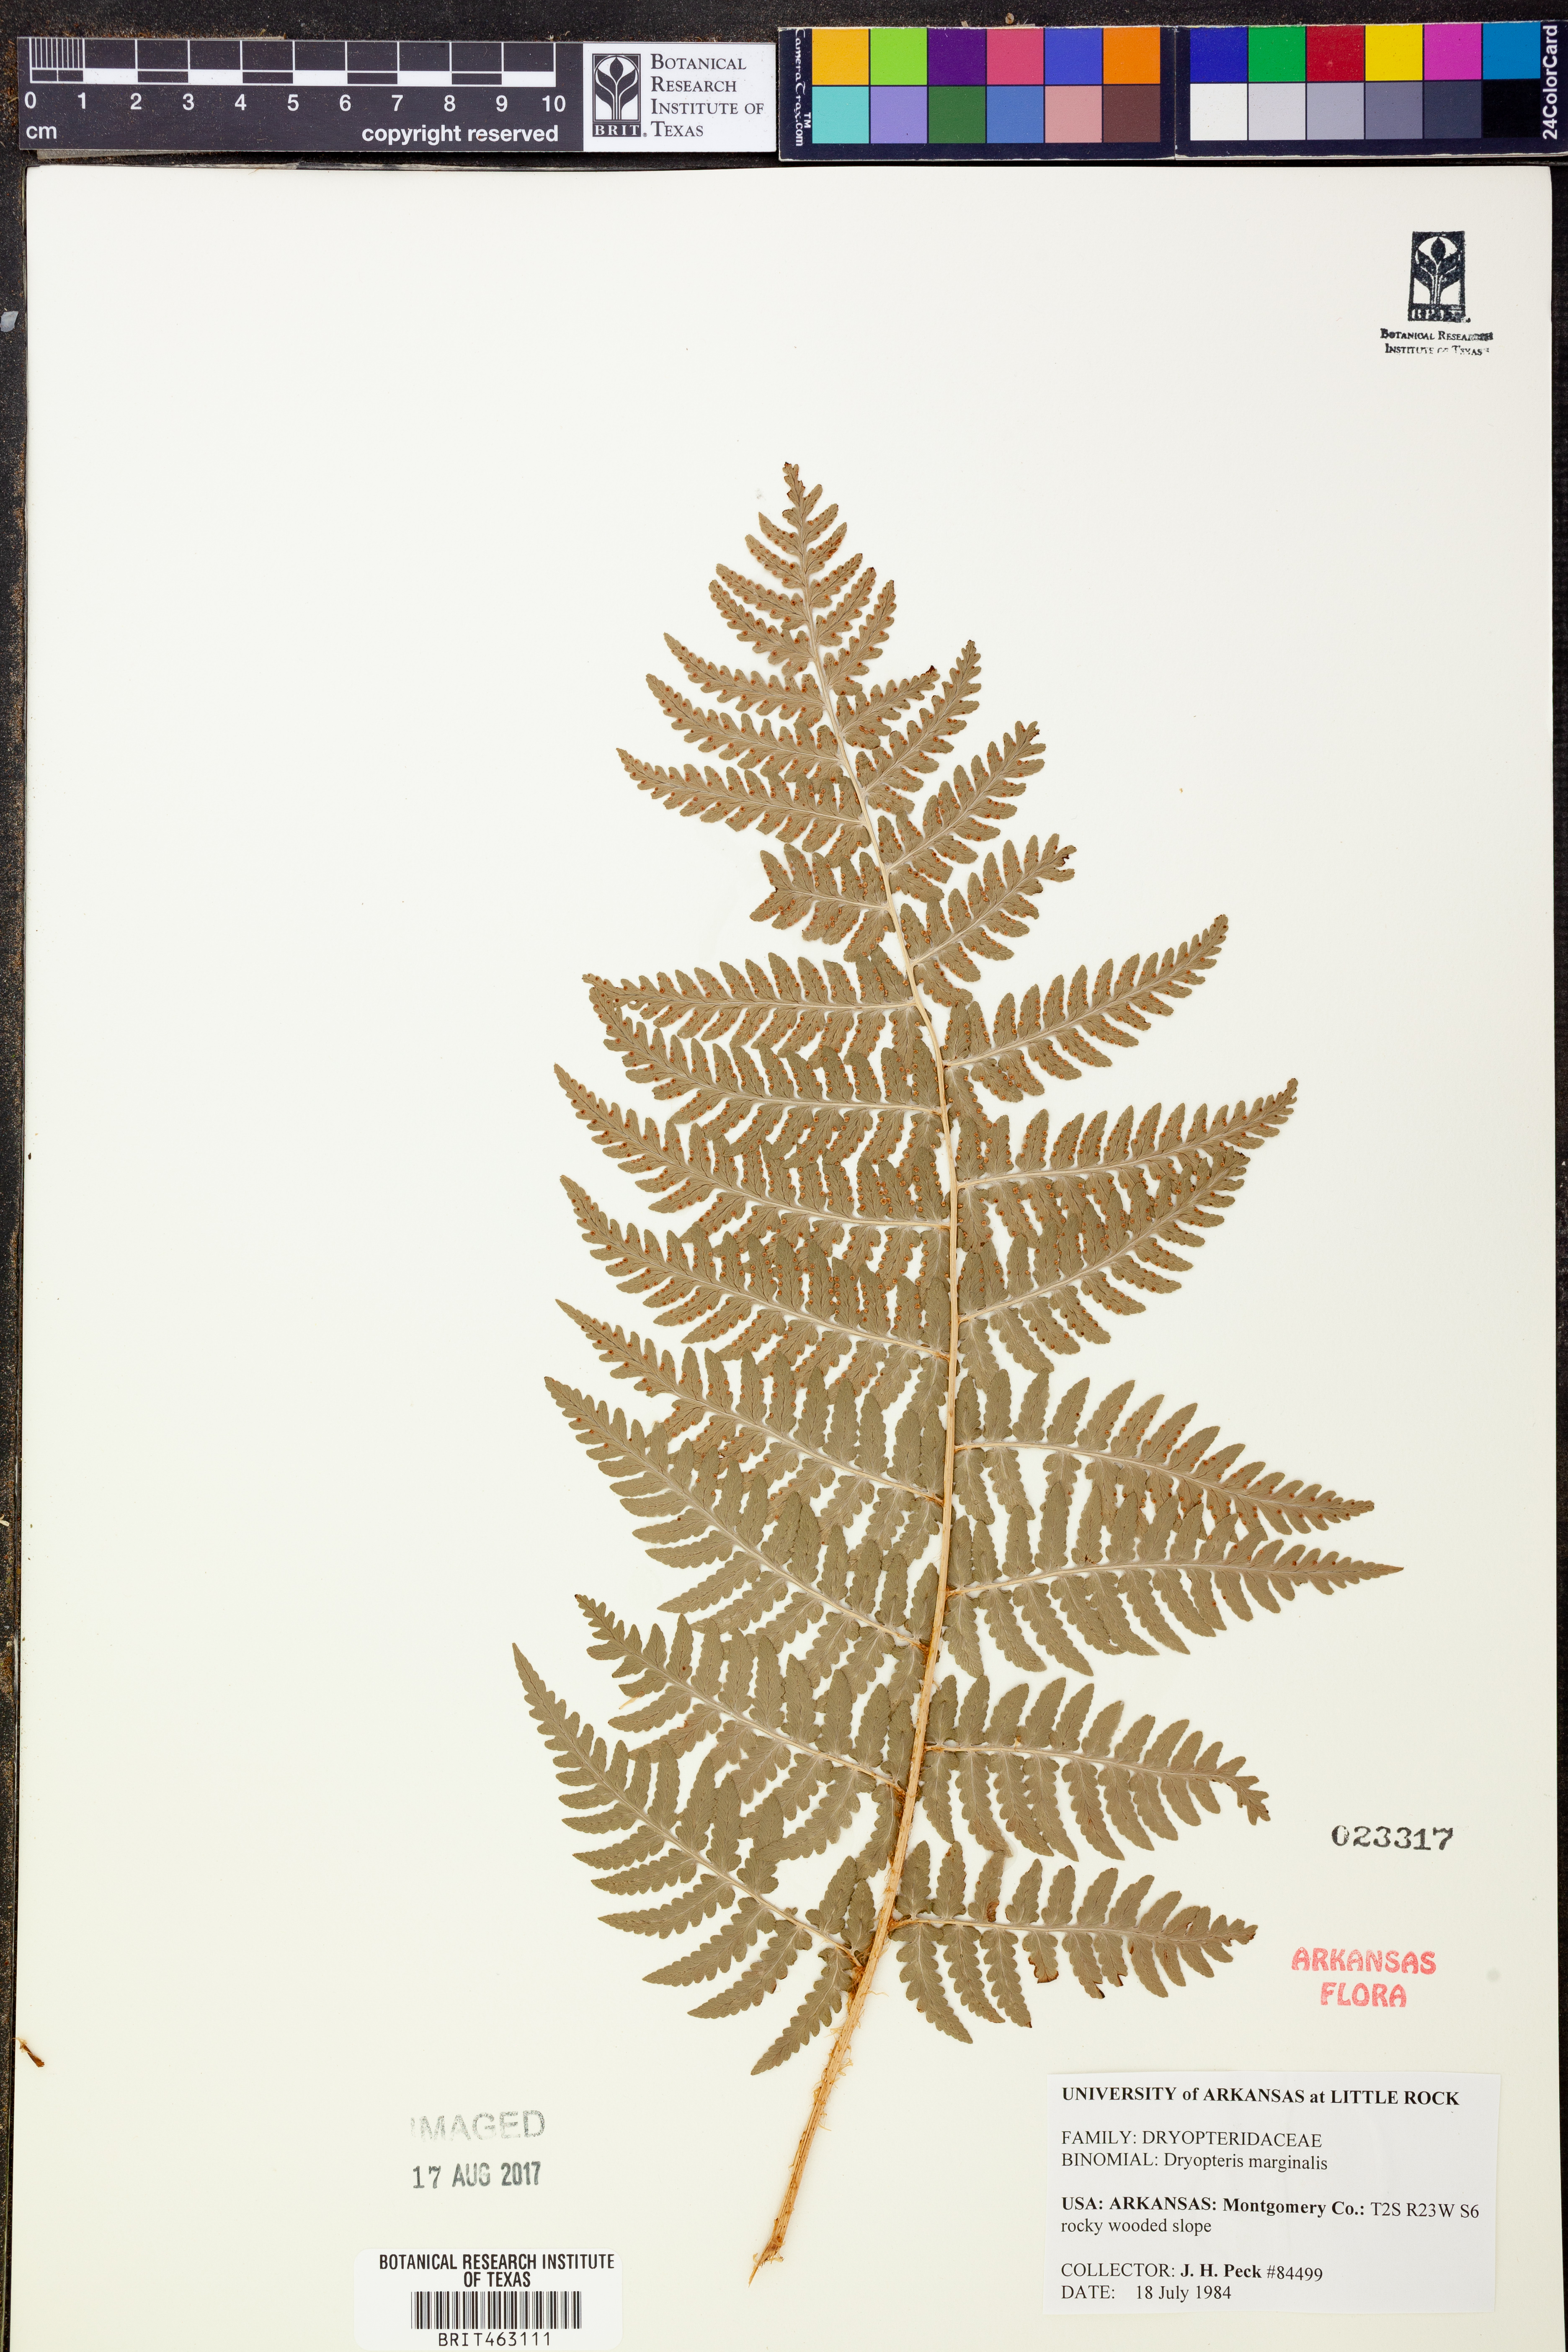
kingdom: Plantae
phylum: Tracheophyta
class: Polypodiopsida
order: Polypodiales
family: Dryopteridaceae
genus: Dryopteris
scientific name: Dryopteris marginalis
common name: Marginal wood fern
